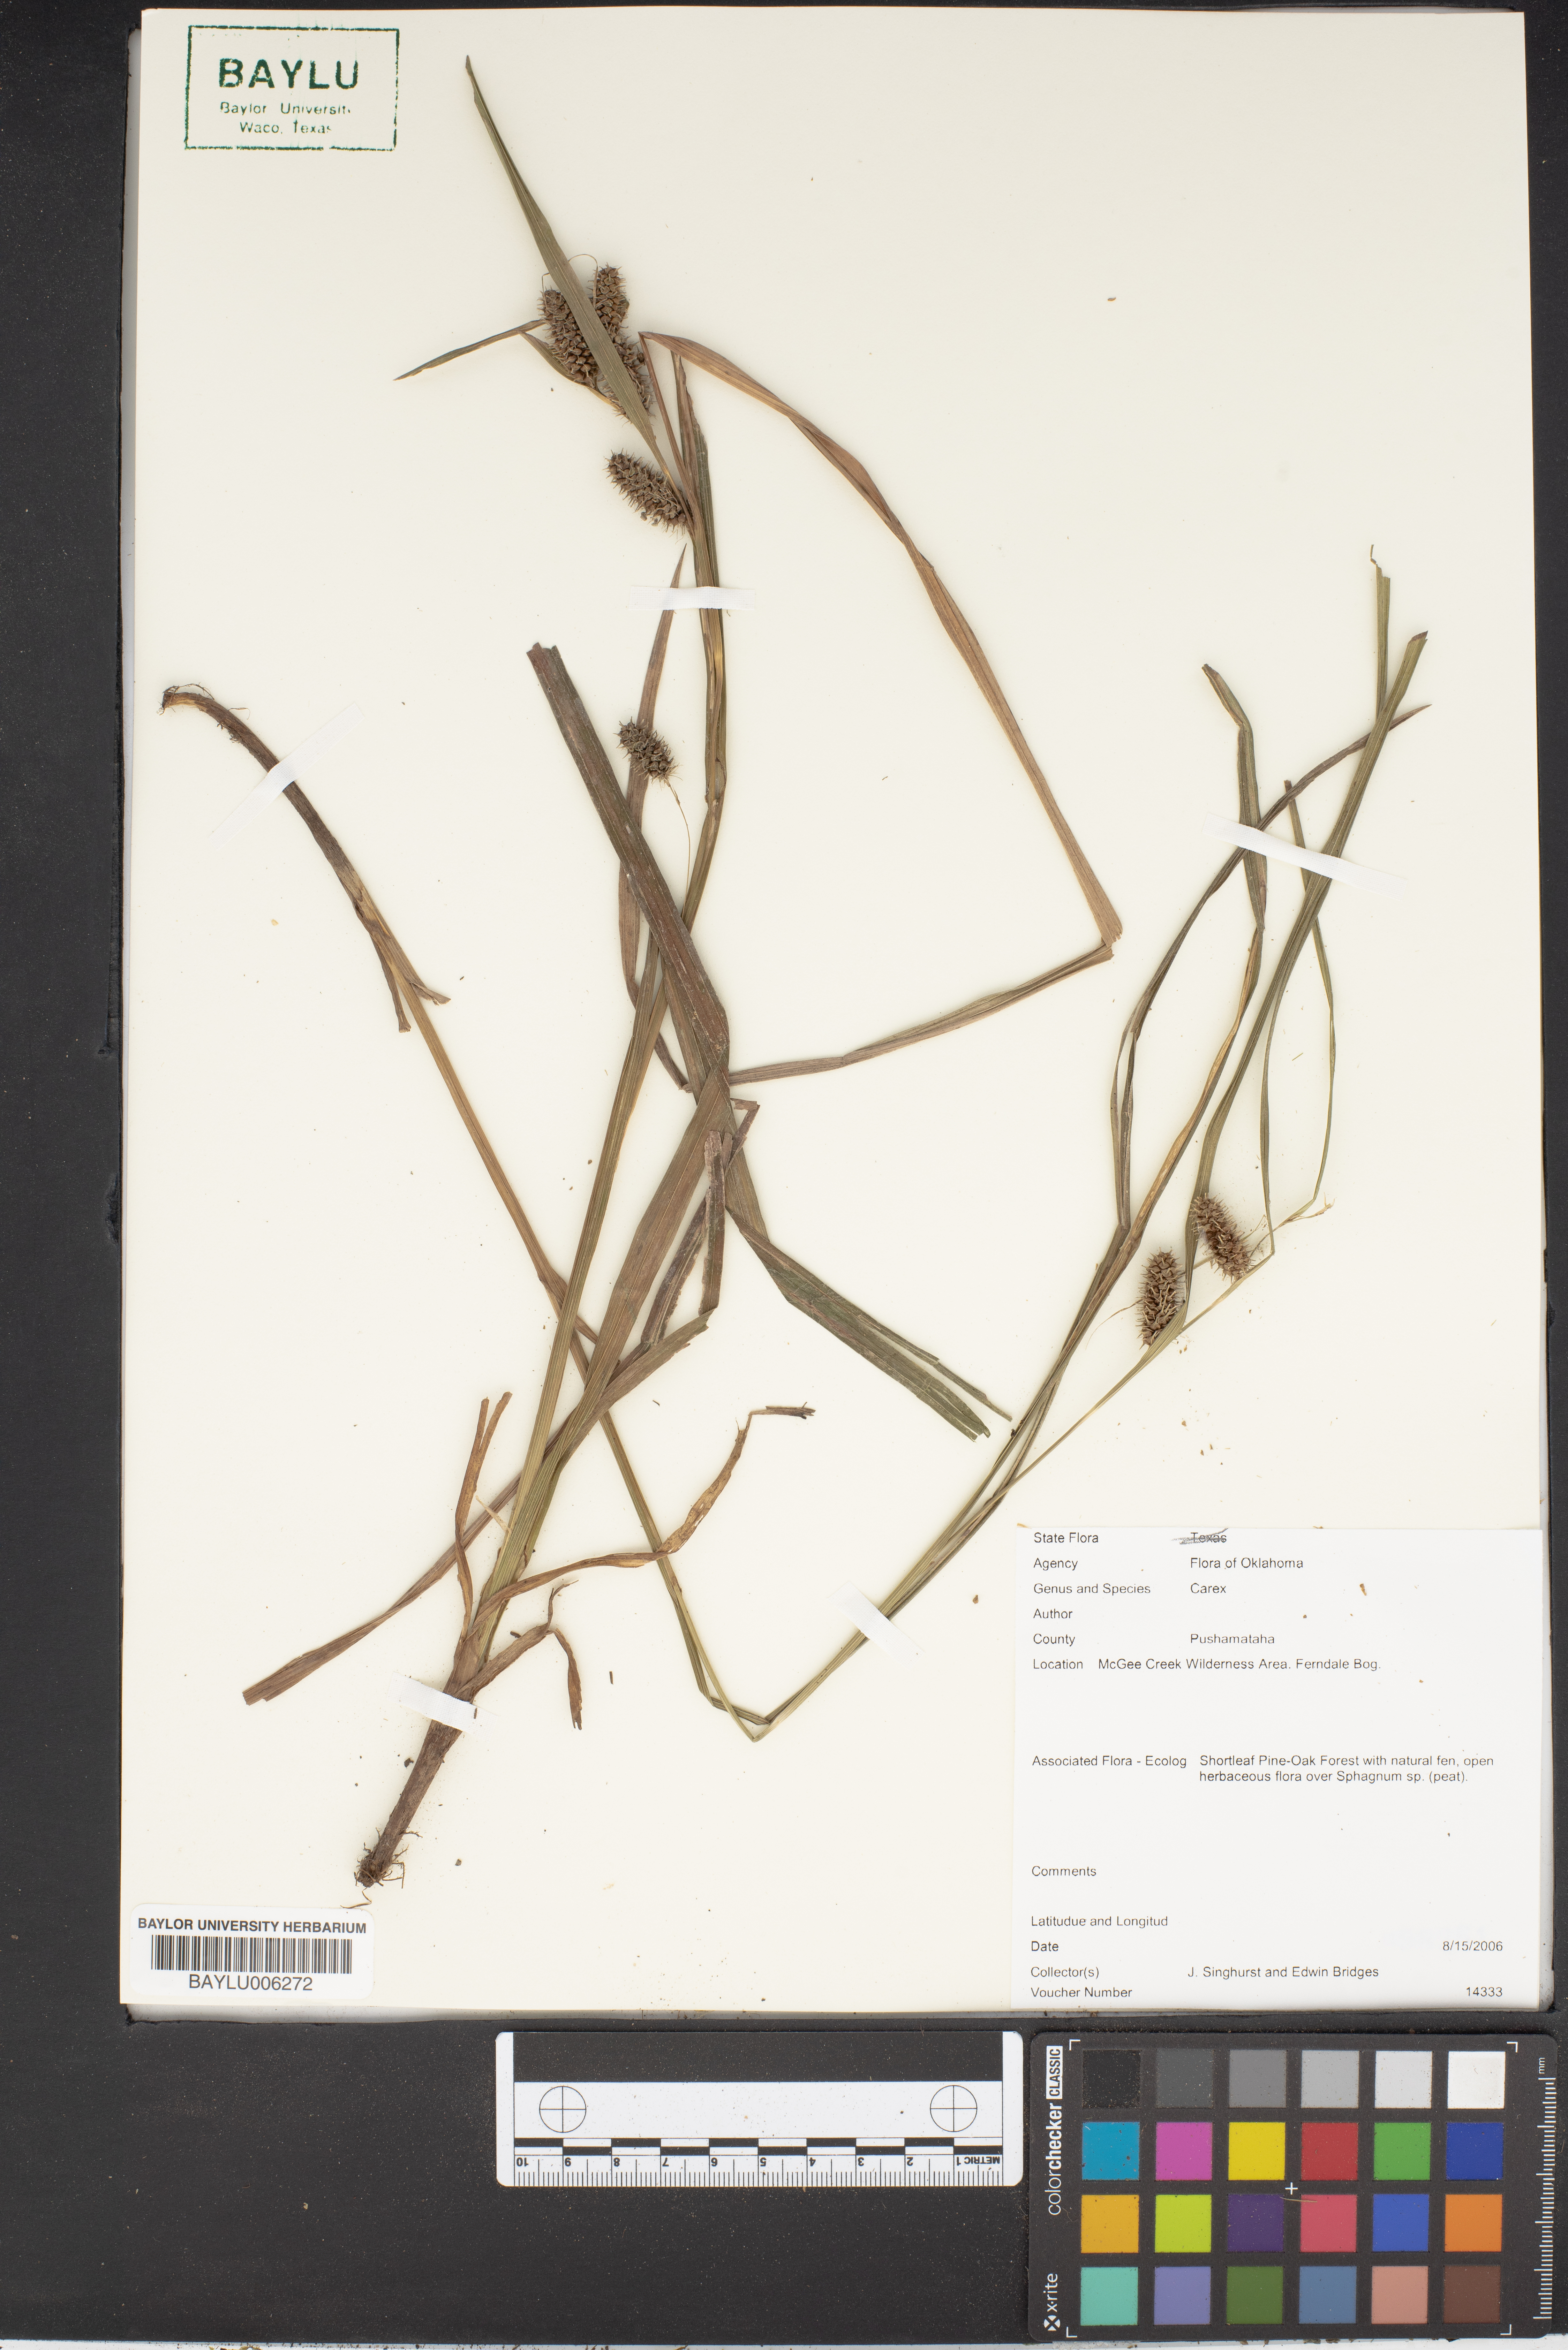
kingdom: Plantae
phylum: Tracheophyta
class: Liliopsida
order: Poales
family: Cyperaceae
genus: Carex
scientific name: Carex
